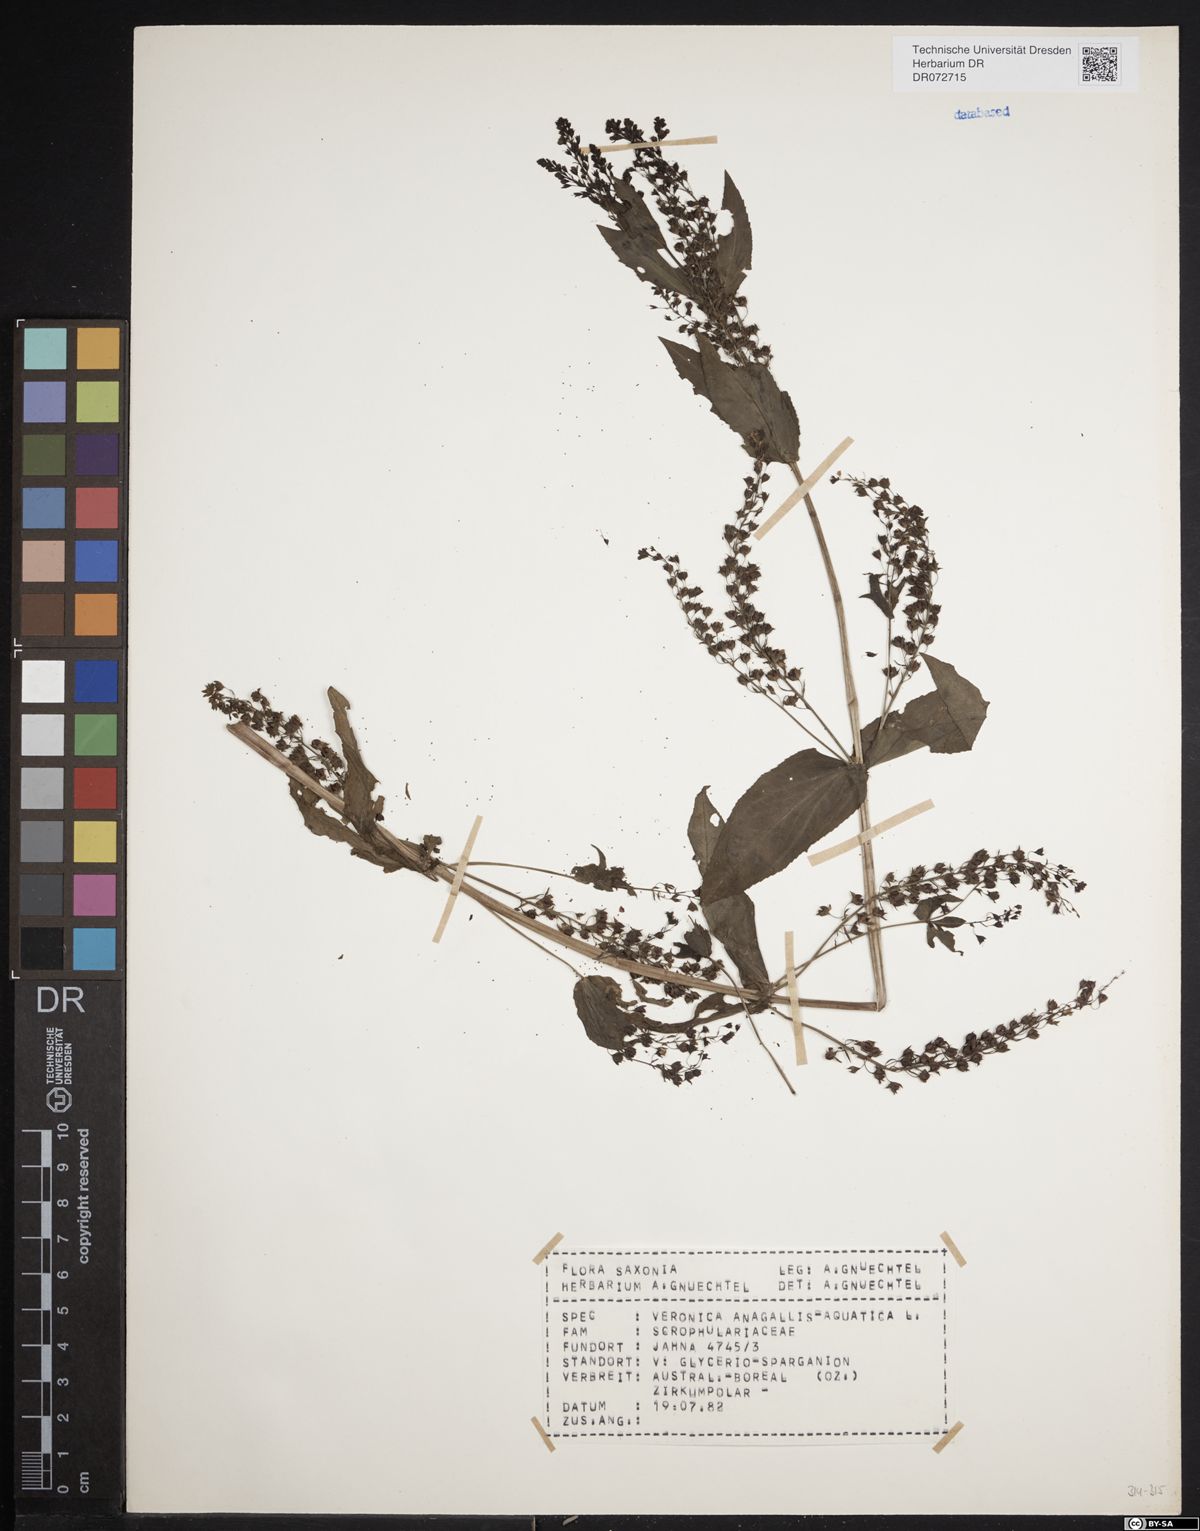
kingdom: Plantae
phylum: Tracheophyta
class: Magnoliopsida
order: Lamiales
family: Plantaginaceae
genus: Veronica
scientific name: Veronica anagallis-aquatica
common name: Water speedwell
